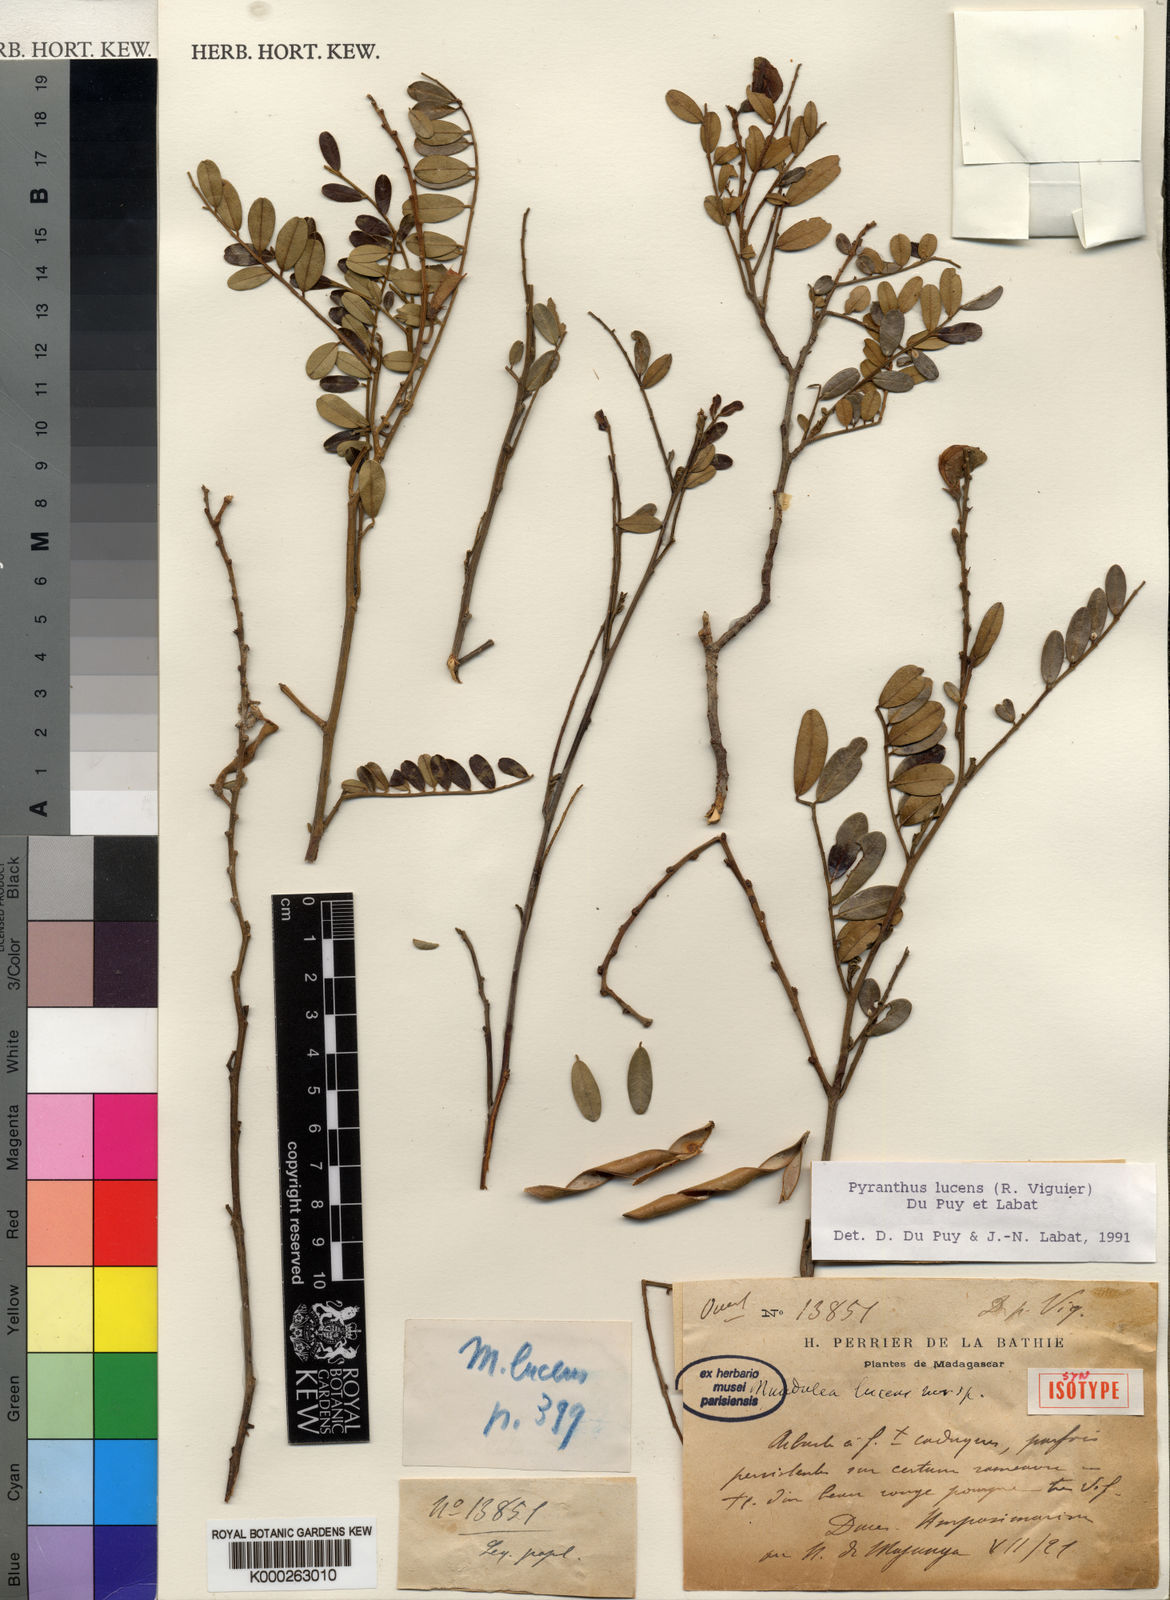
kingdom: Plantae
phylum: Tracheophyta
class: Magnoliopsida
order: Fabales
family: Fabaceae
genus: Pyranthus
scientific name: Pyranthus lucens
